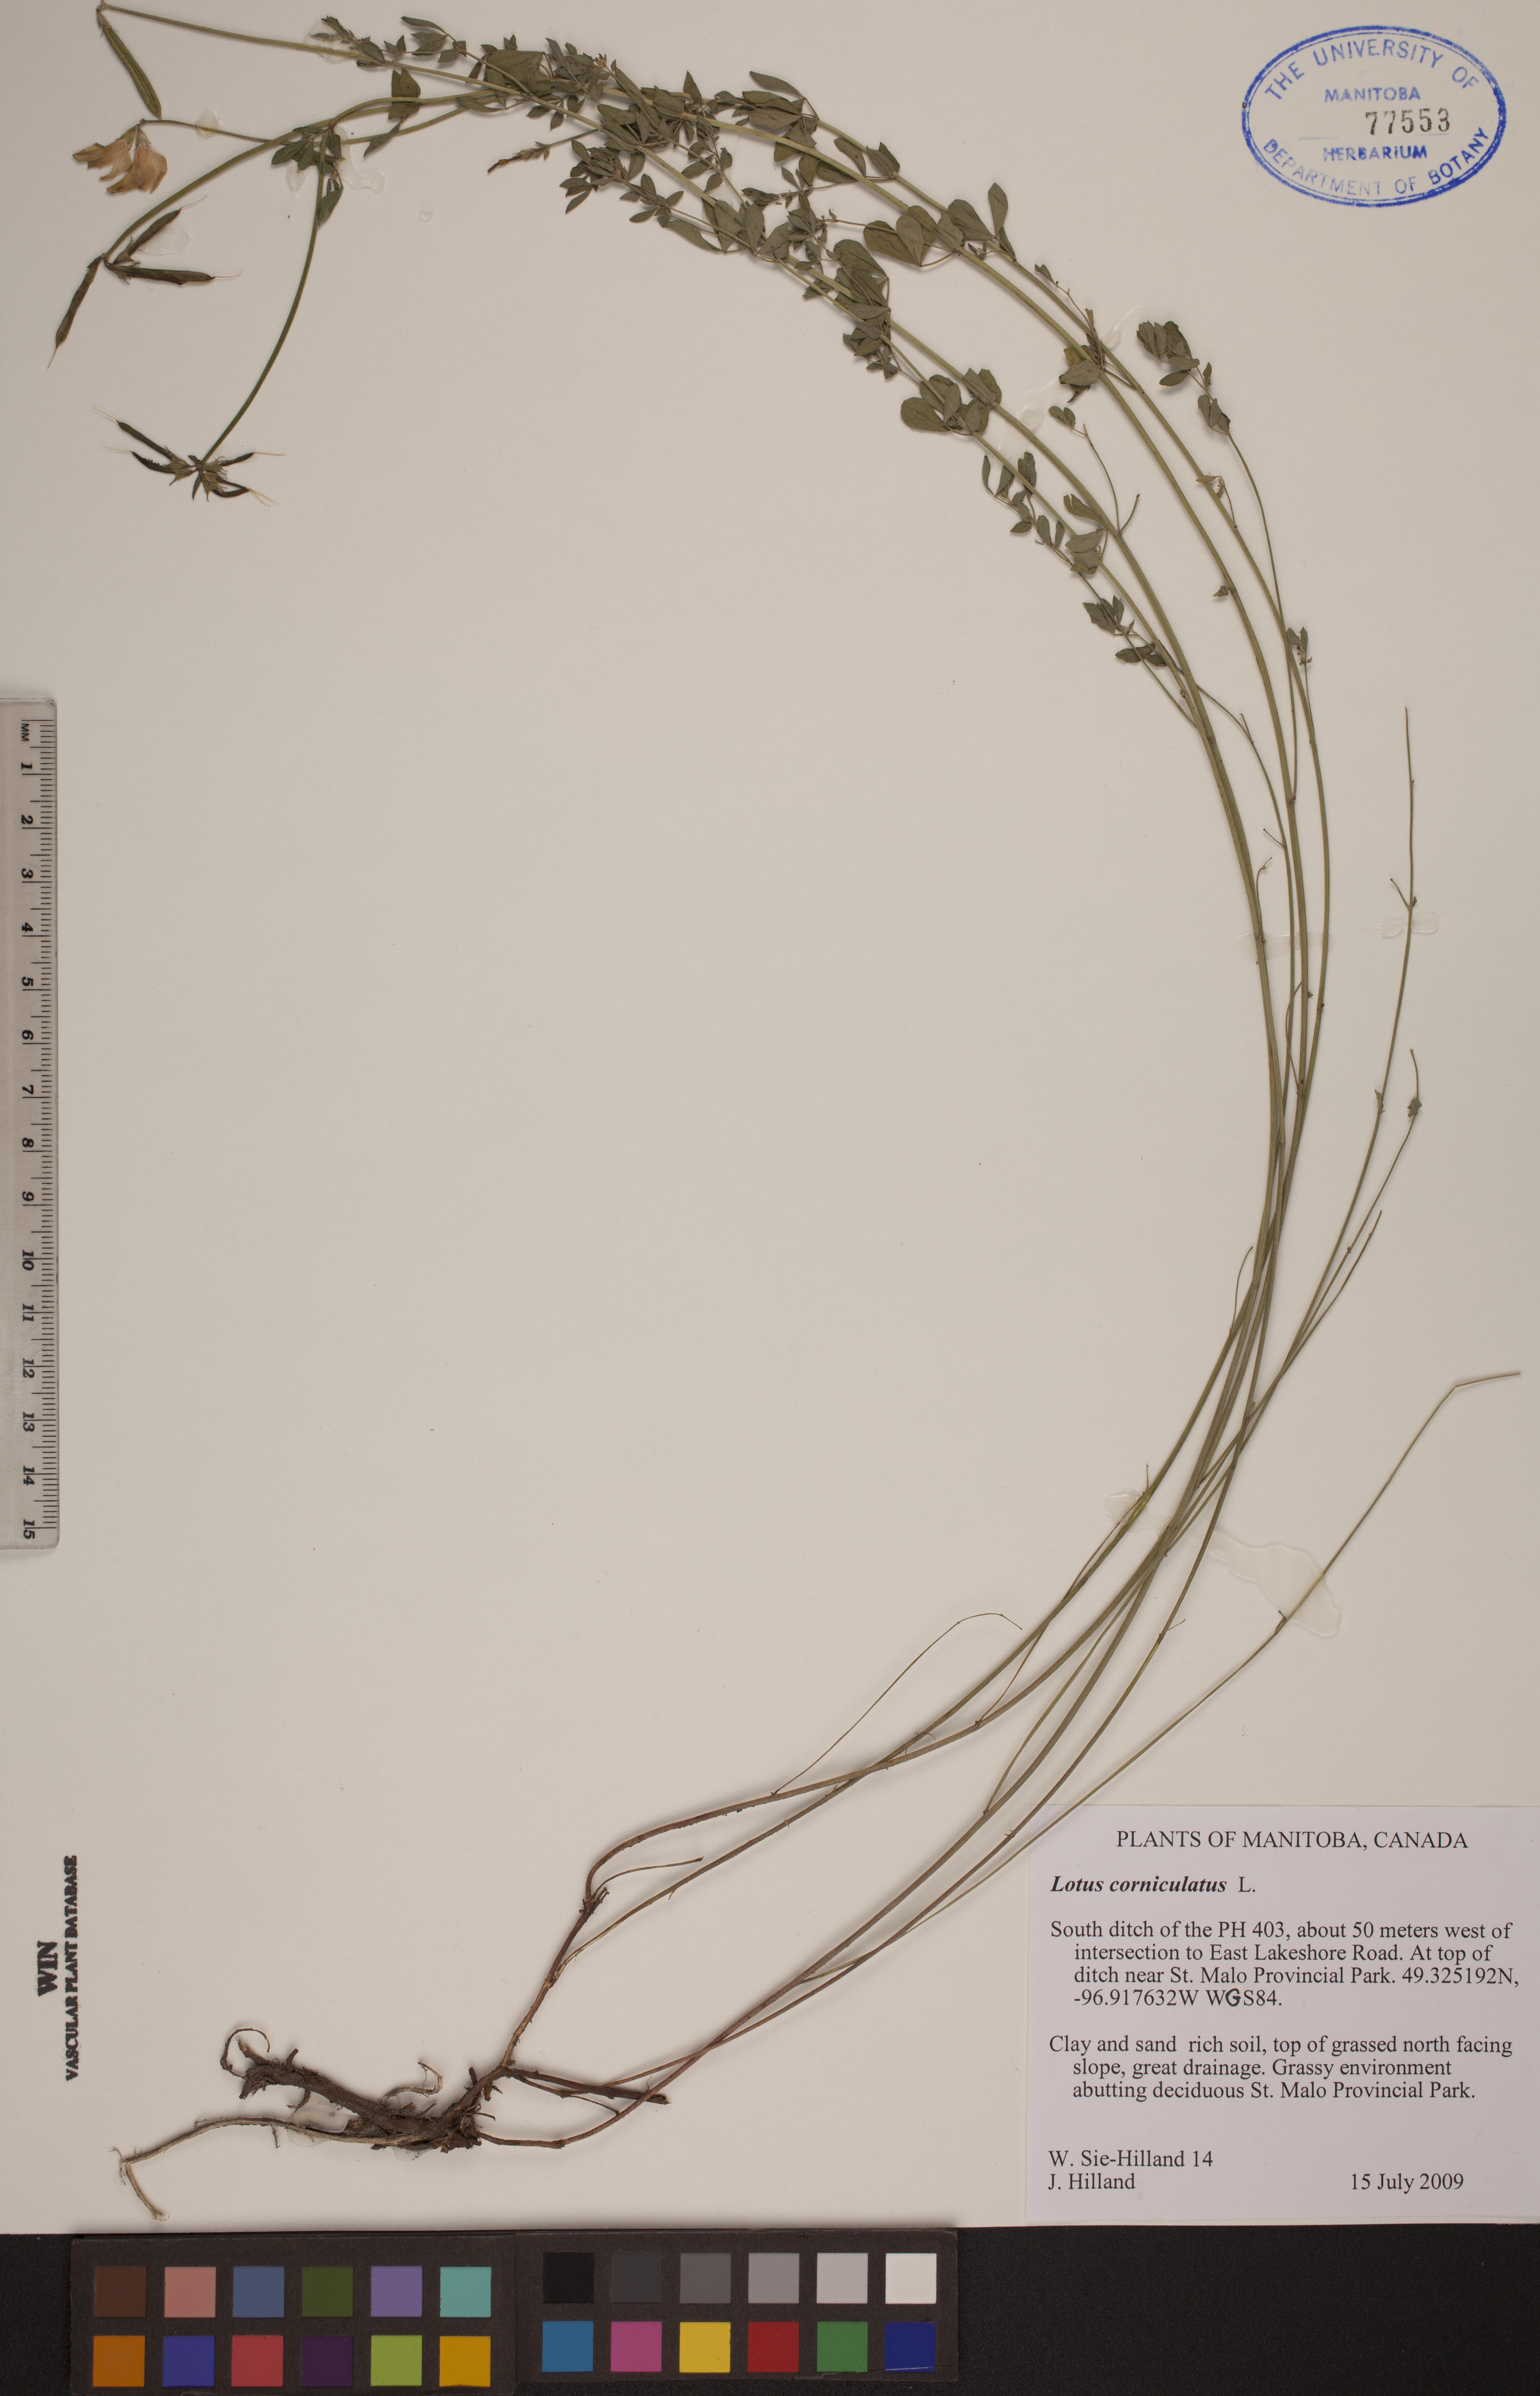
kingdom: Plantae
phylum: Tracheophyta
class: Magnoliopsida
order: Fabales
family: Fabaceae
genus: Lotus
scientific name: Lotus corniculatus
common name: Common bird's-foot-trefoil
